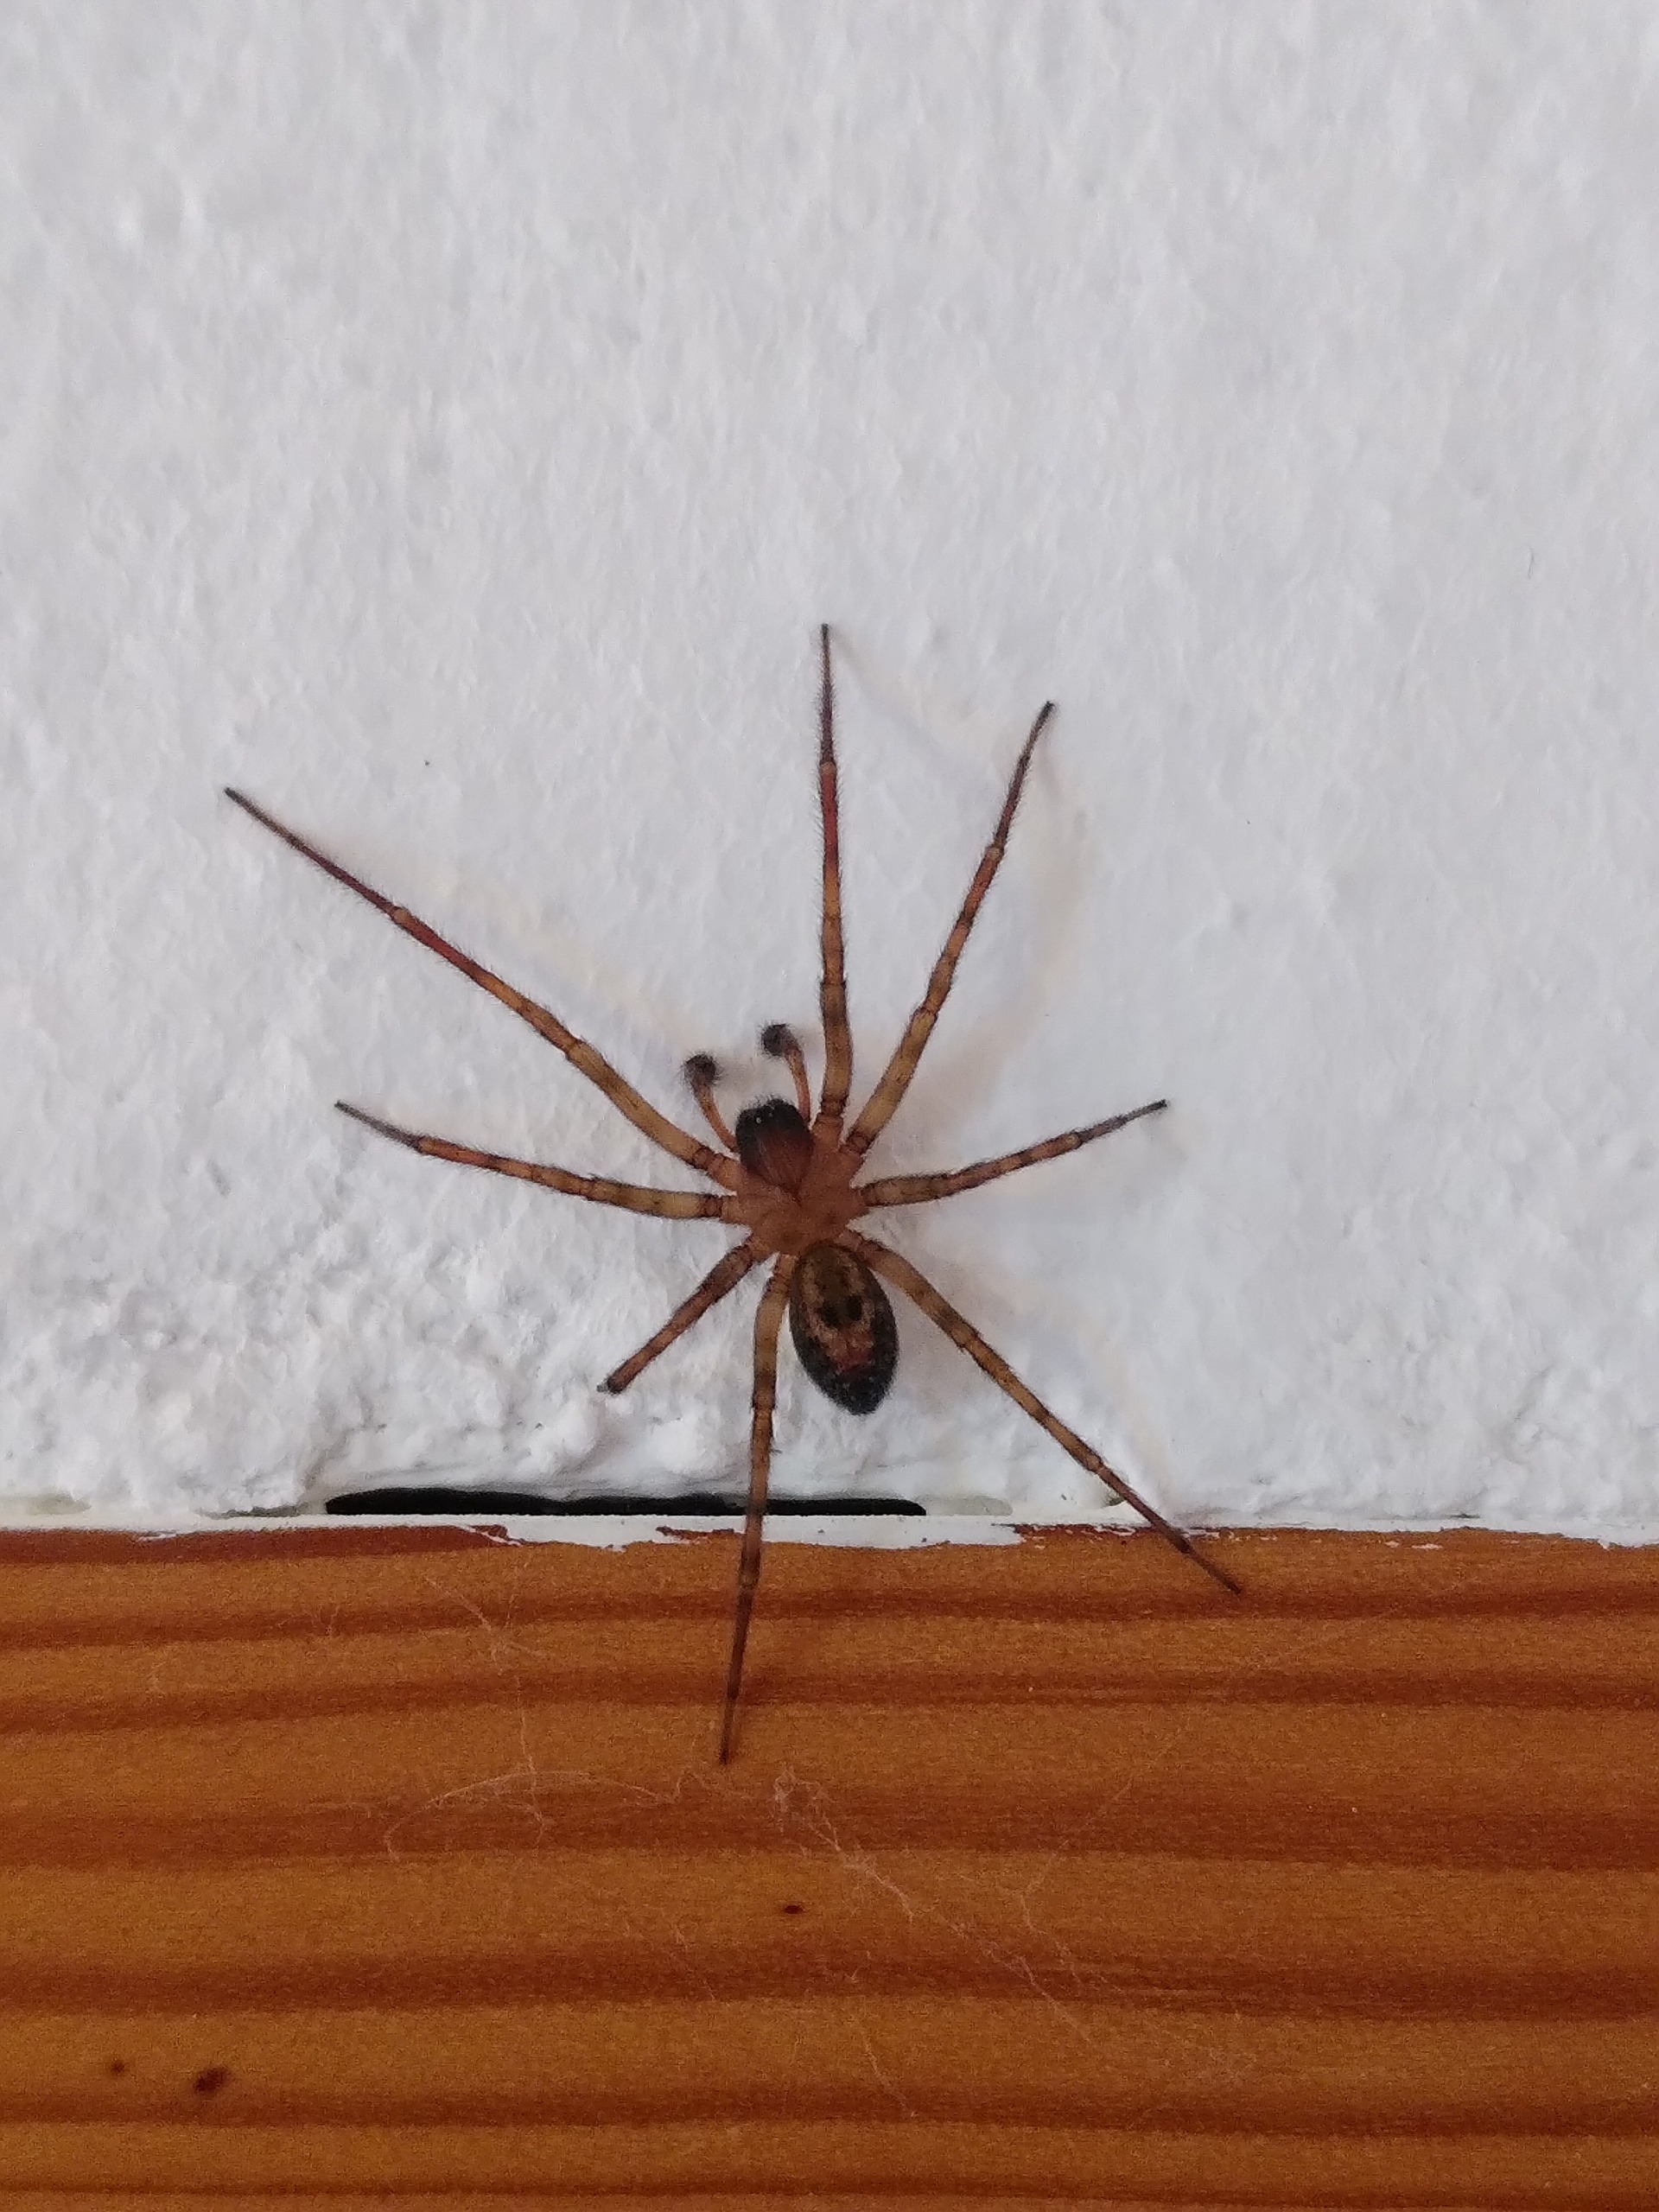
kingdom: Animalia
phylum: Arthropoda
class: Arachnida
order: Araneae
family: Amaurobiidae
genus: Amaurobius
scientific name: Amaurobius similis
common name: Huskartespinder
